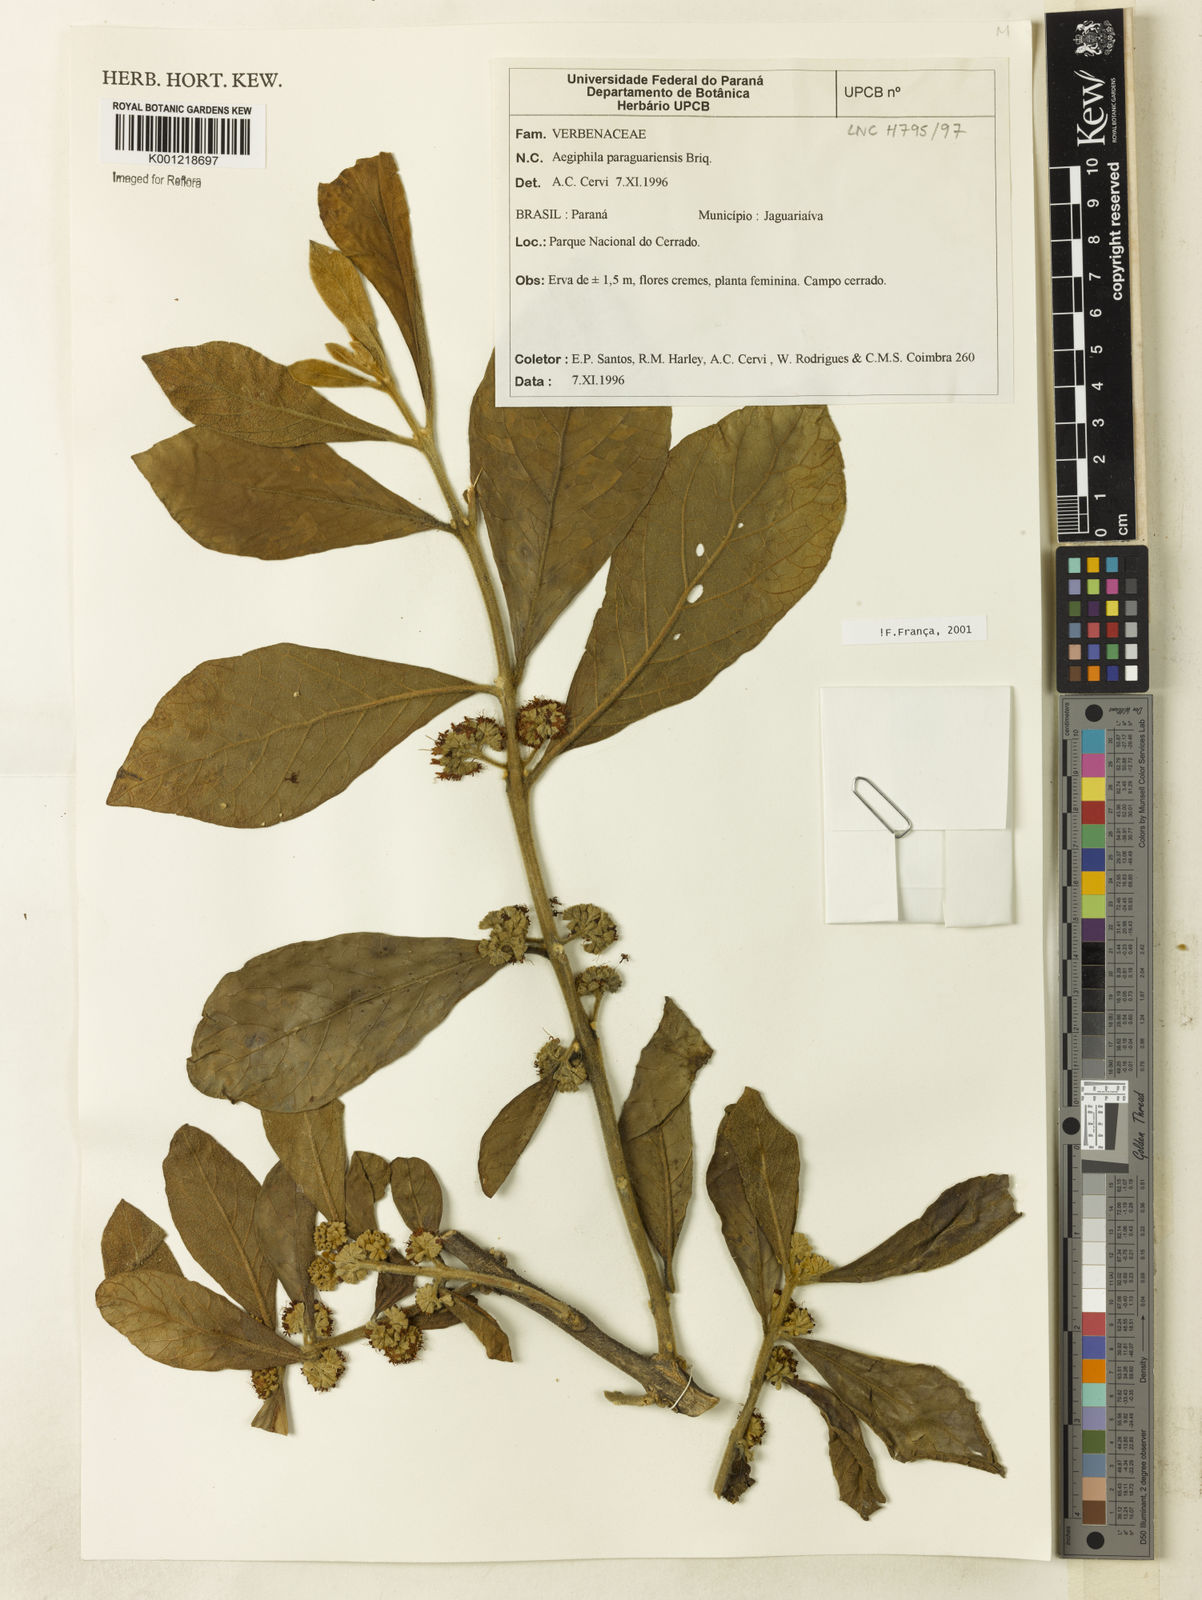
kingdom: Plantae
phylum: Tracheophyta
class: Magnoliopsida
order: Lamiales
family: Lamiaceae
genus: Aegiphila
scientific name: Aegiphila paraguariensis
